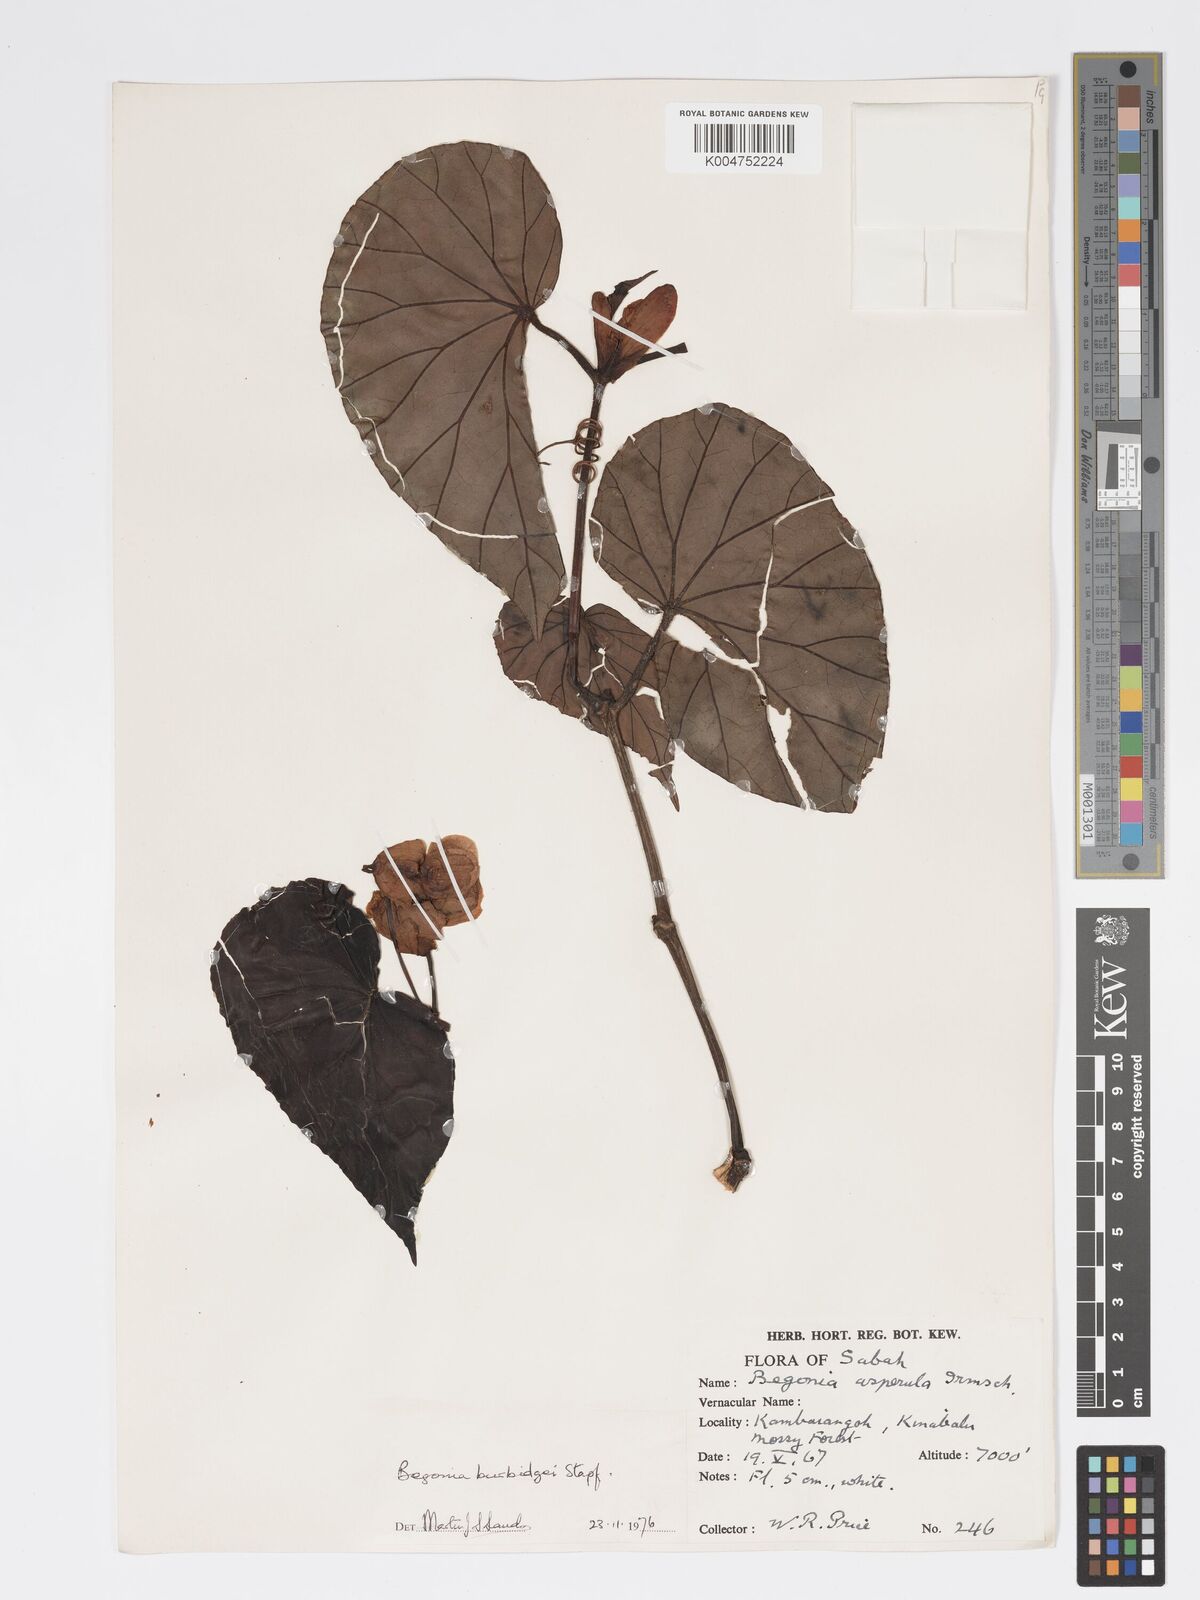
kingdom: Plantae
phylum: Tracheophyta
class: Magnoliopsida
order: Cucurbitales
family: Begoniaceae
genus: Begonia
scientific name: Begonia burbidgei
